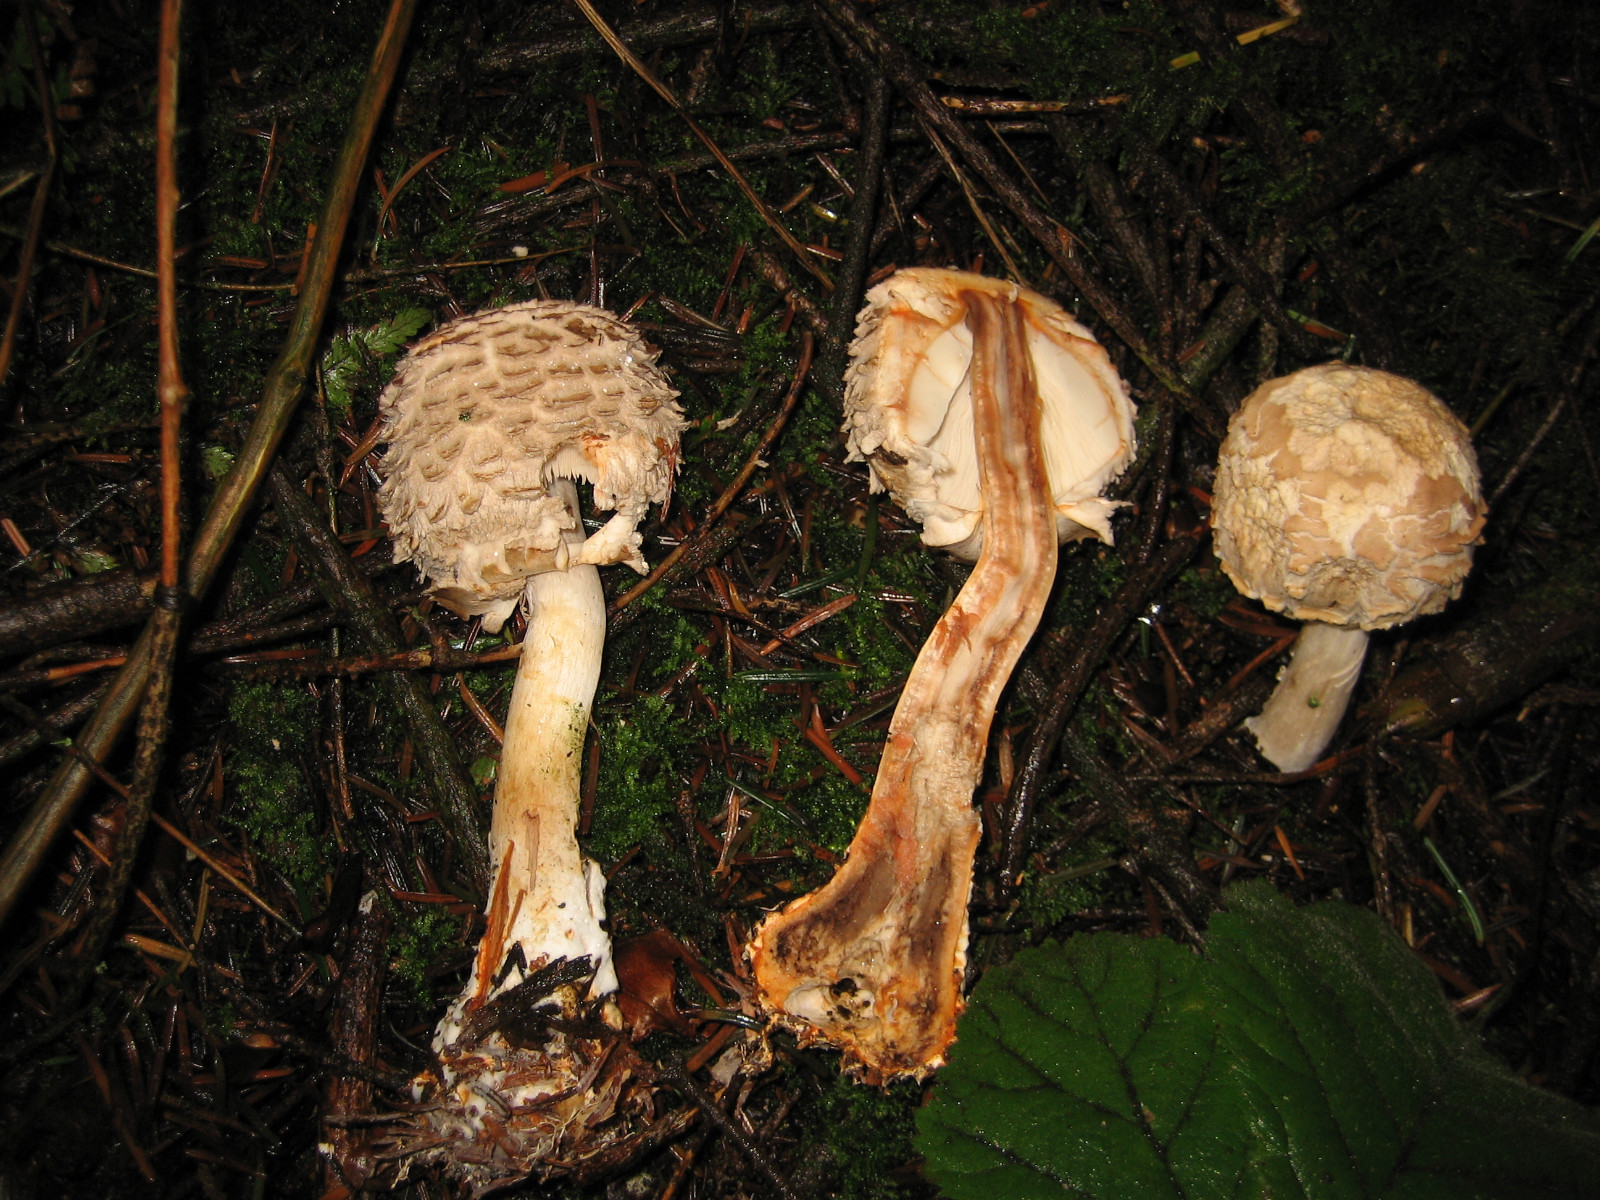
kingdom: Fungi
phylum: Basidiomycota
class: Agaricomycetes
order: Agaricales
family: Agaricaceae
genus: Chlorophyllum
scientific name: Chlorophyllum olivieri
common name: almindelig rabarberhat
